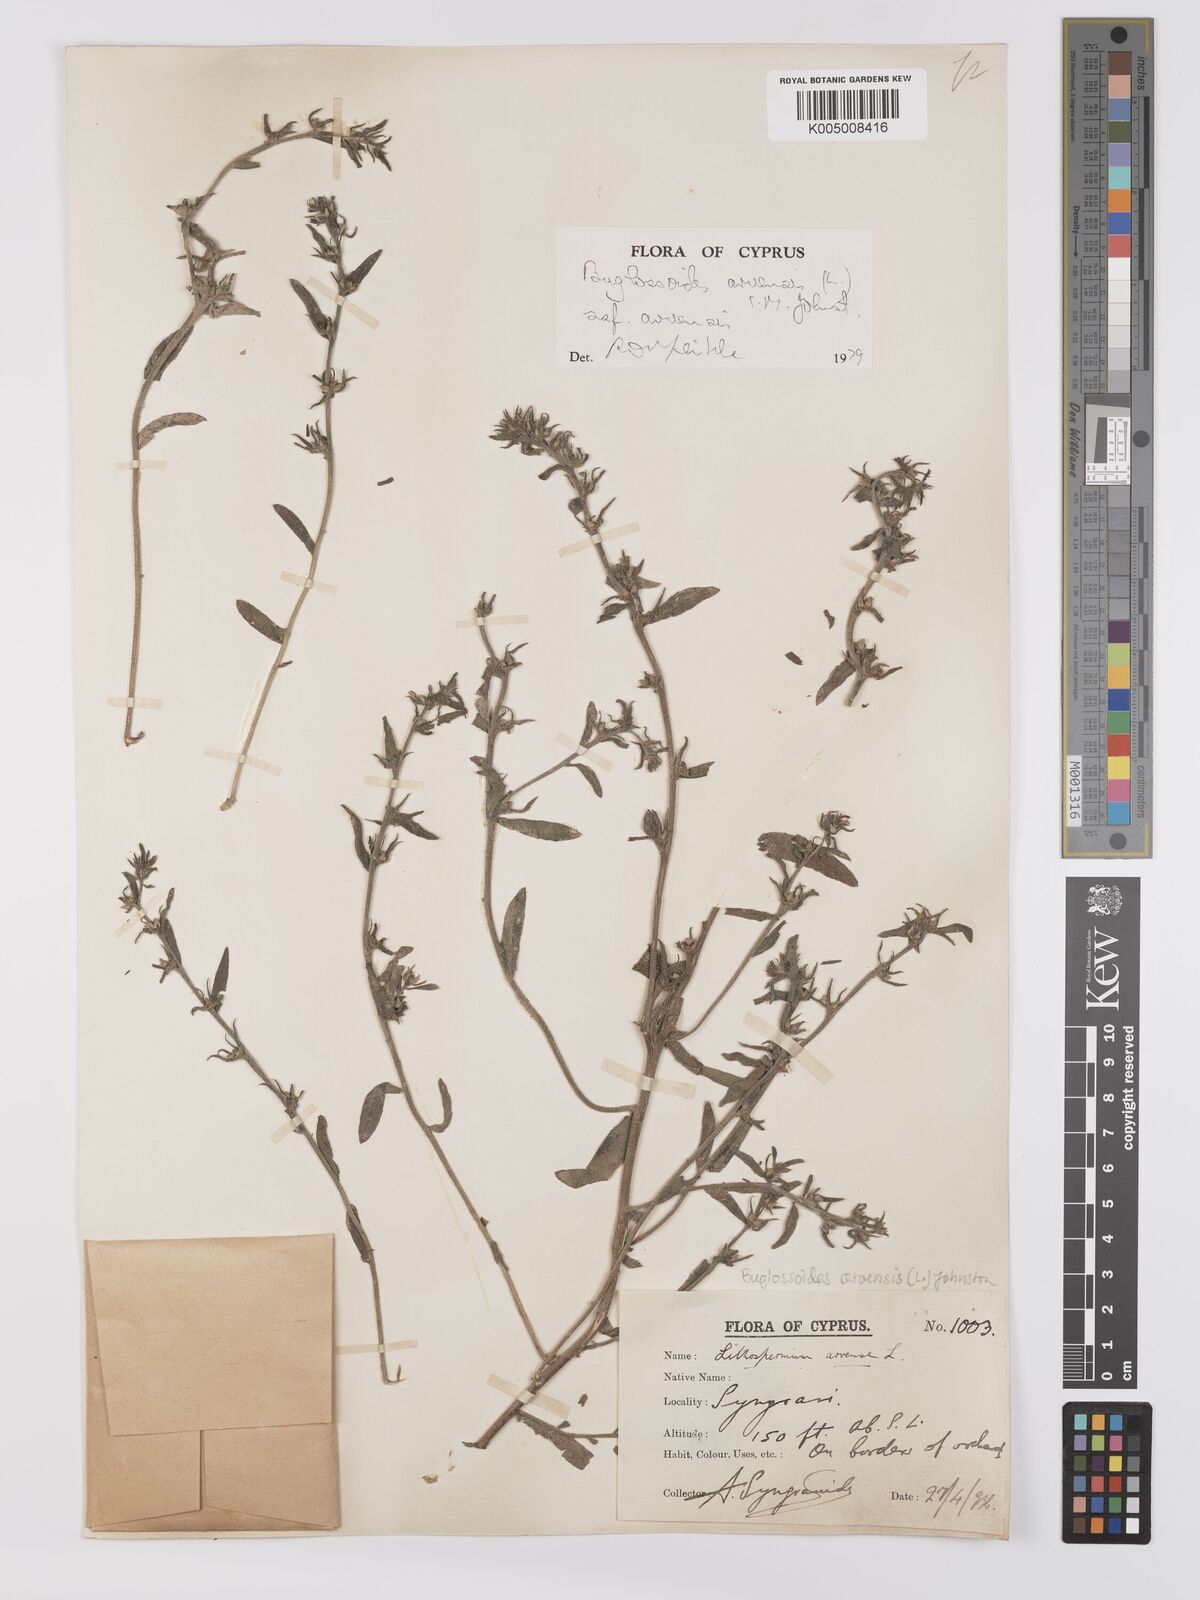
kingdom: Plantae
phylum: Tracheophyta
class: Magnoliopsida
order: Boraginales
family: Boraginaceae
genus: Buglossoides
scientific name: Buglossoides arvensis
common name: Corn gromwell
